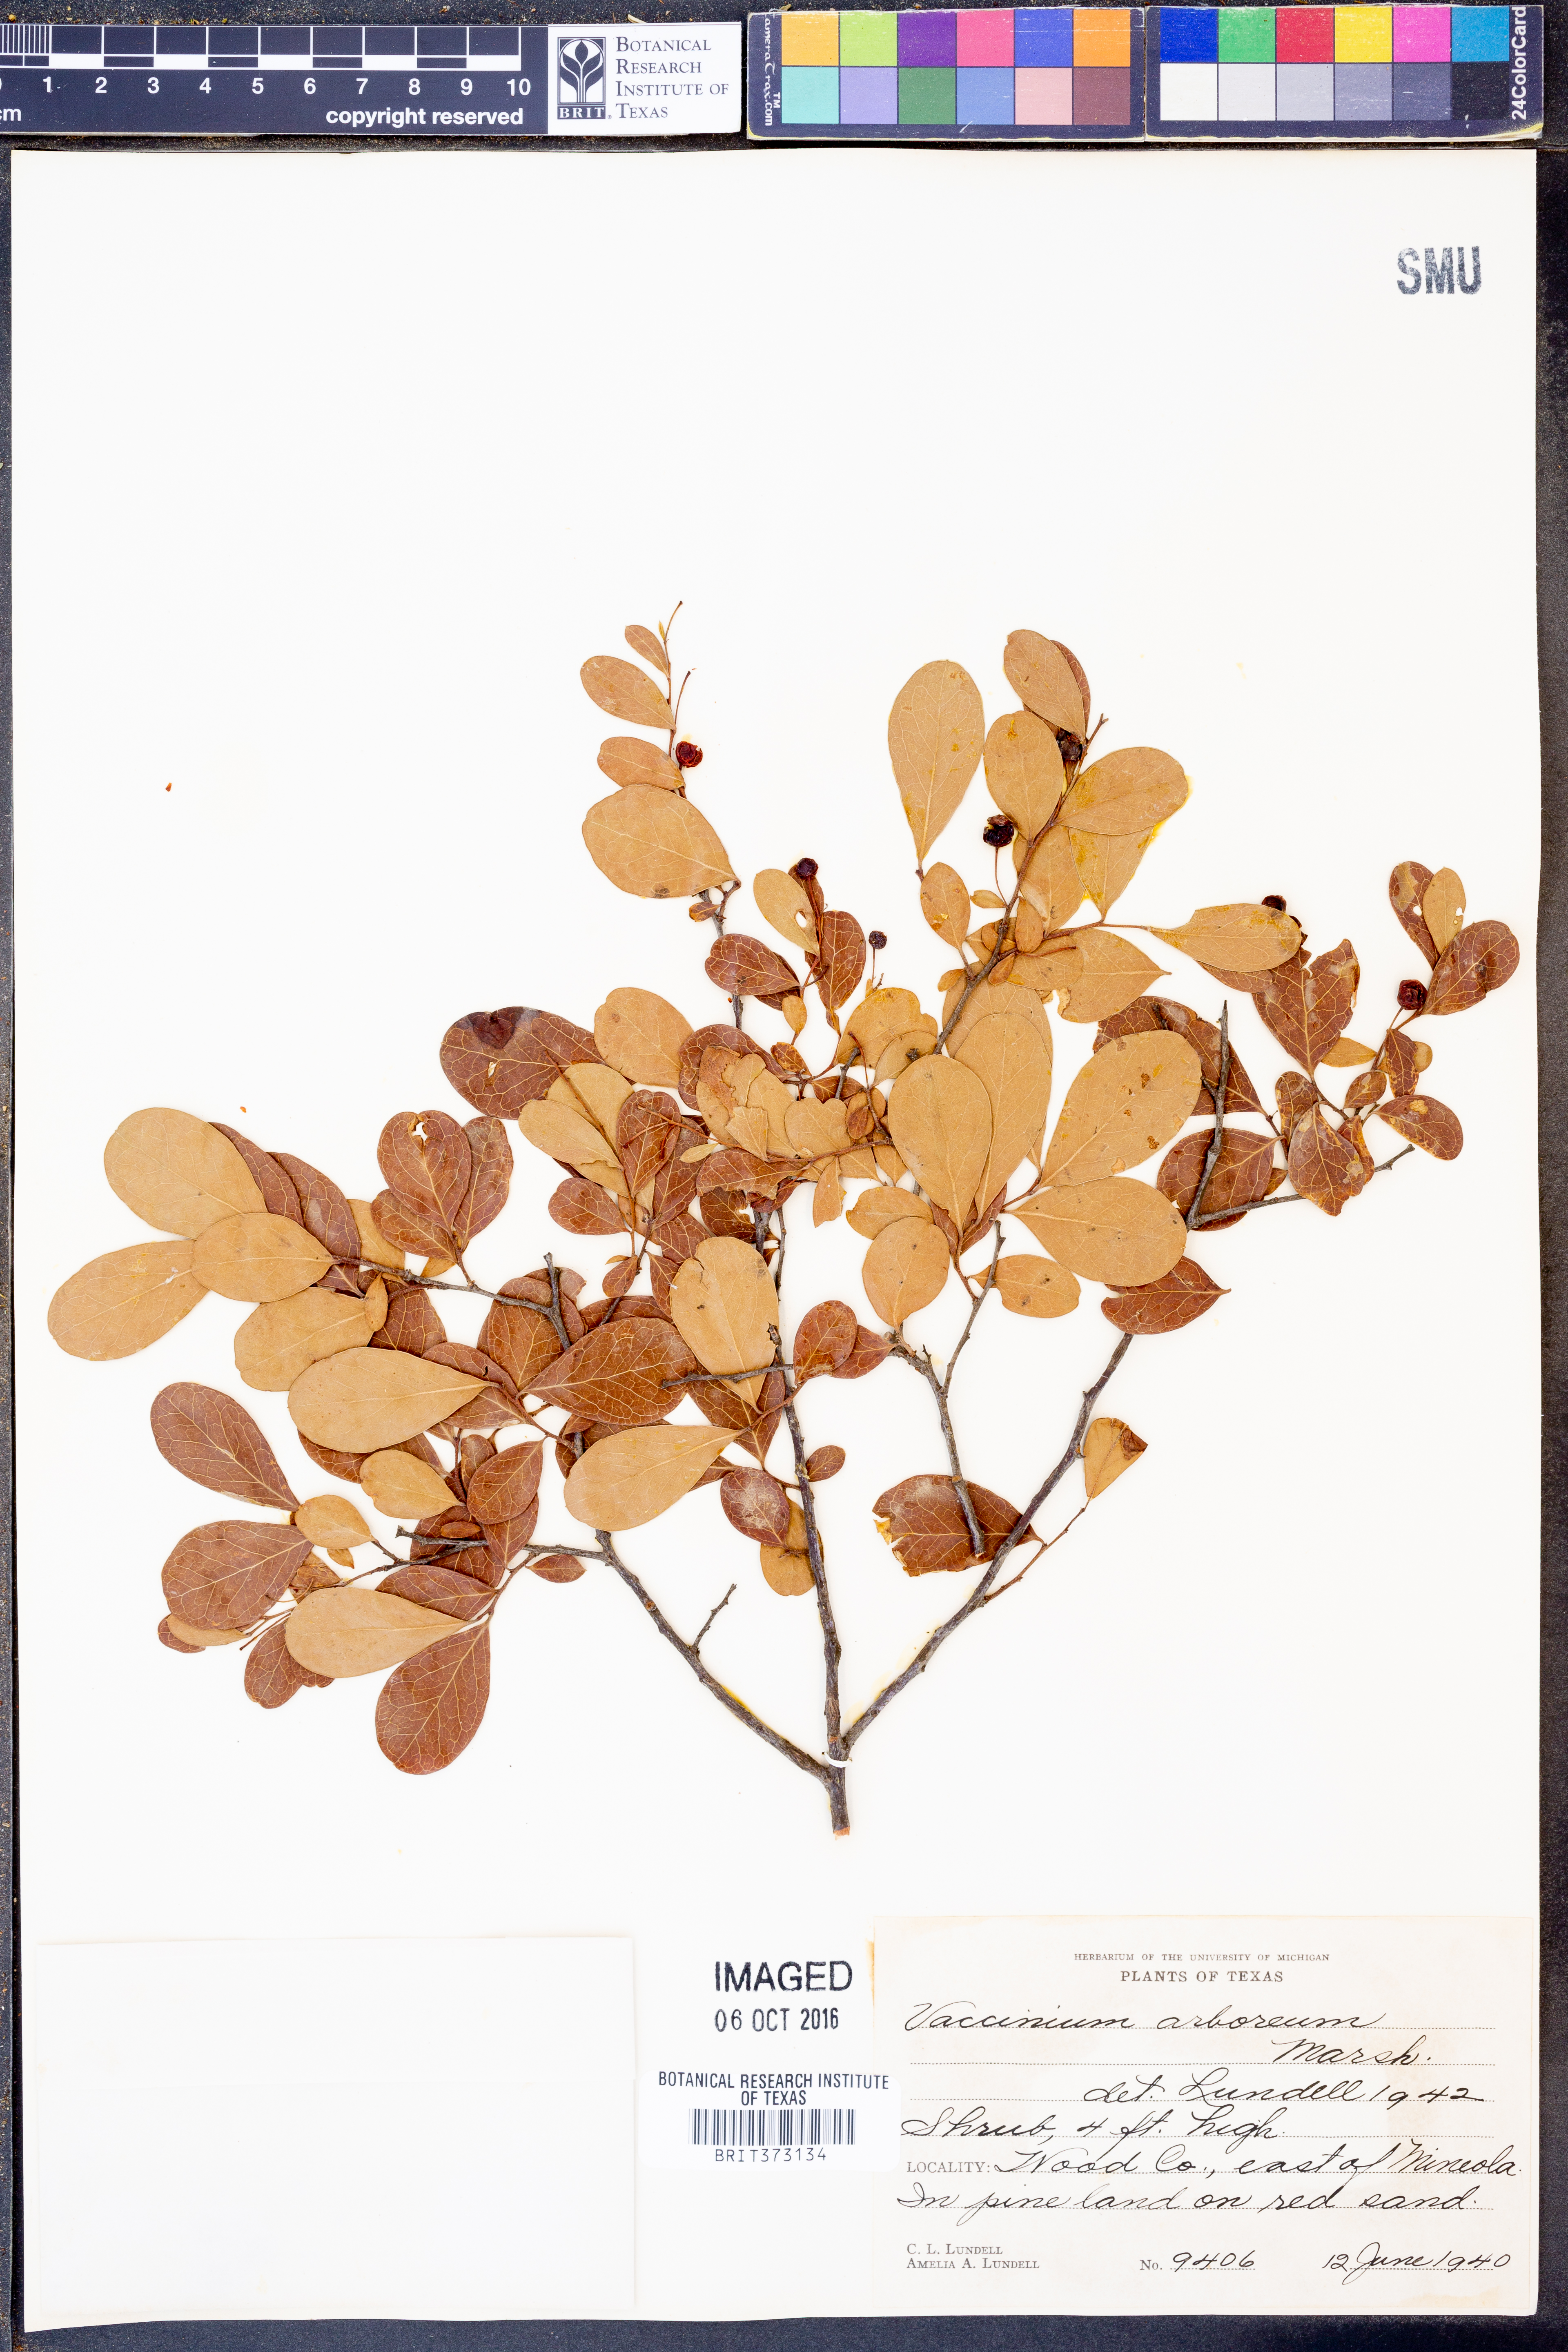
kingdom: Plantae
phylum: Tracheophyta
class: Magnoliopsida
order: Ericales
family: Ericaceae
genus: Vaccinium
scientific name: Vaccinium arboreum
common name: Farkleberry
